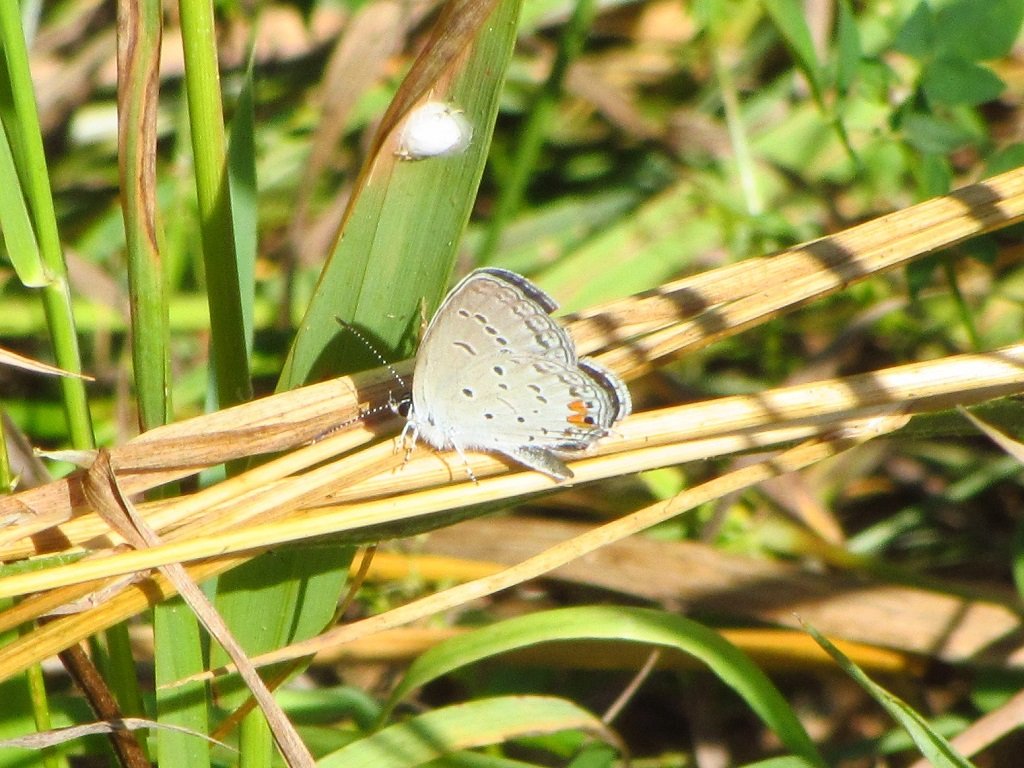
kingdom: Animalia
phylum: Arthropoda
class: Insecta
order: Lepidoptera
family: Lycaenidae
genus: Elkalyce
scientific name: Elkalyce comyntas
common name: Eastern Tailed-Blue
